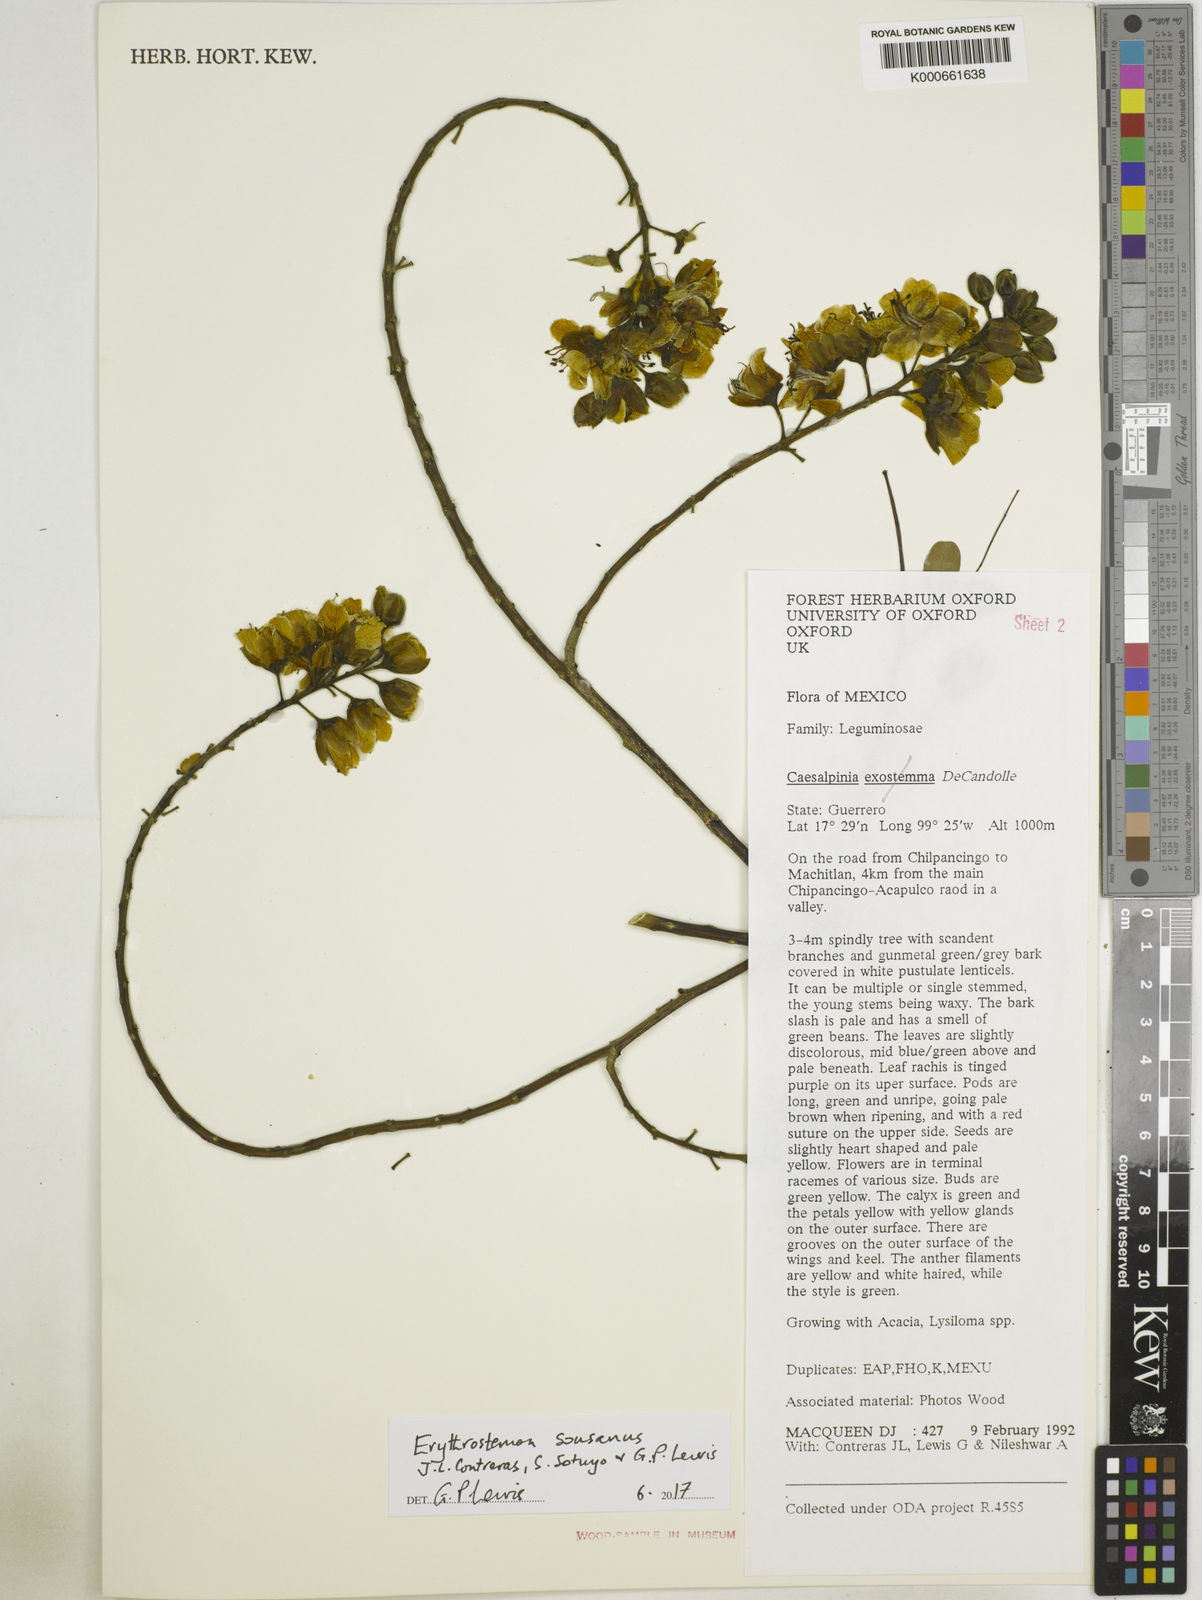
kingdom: Plantae
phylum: Tracheophyta
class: Magnoliopsida
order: Fabales
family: Fabaceae
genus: Caesalpinia
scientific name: Caesalpinia
